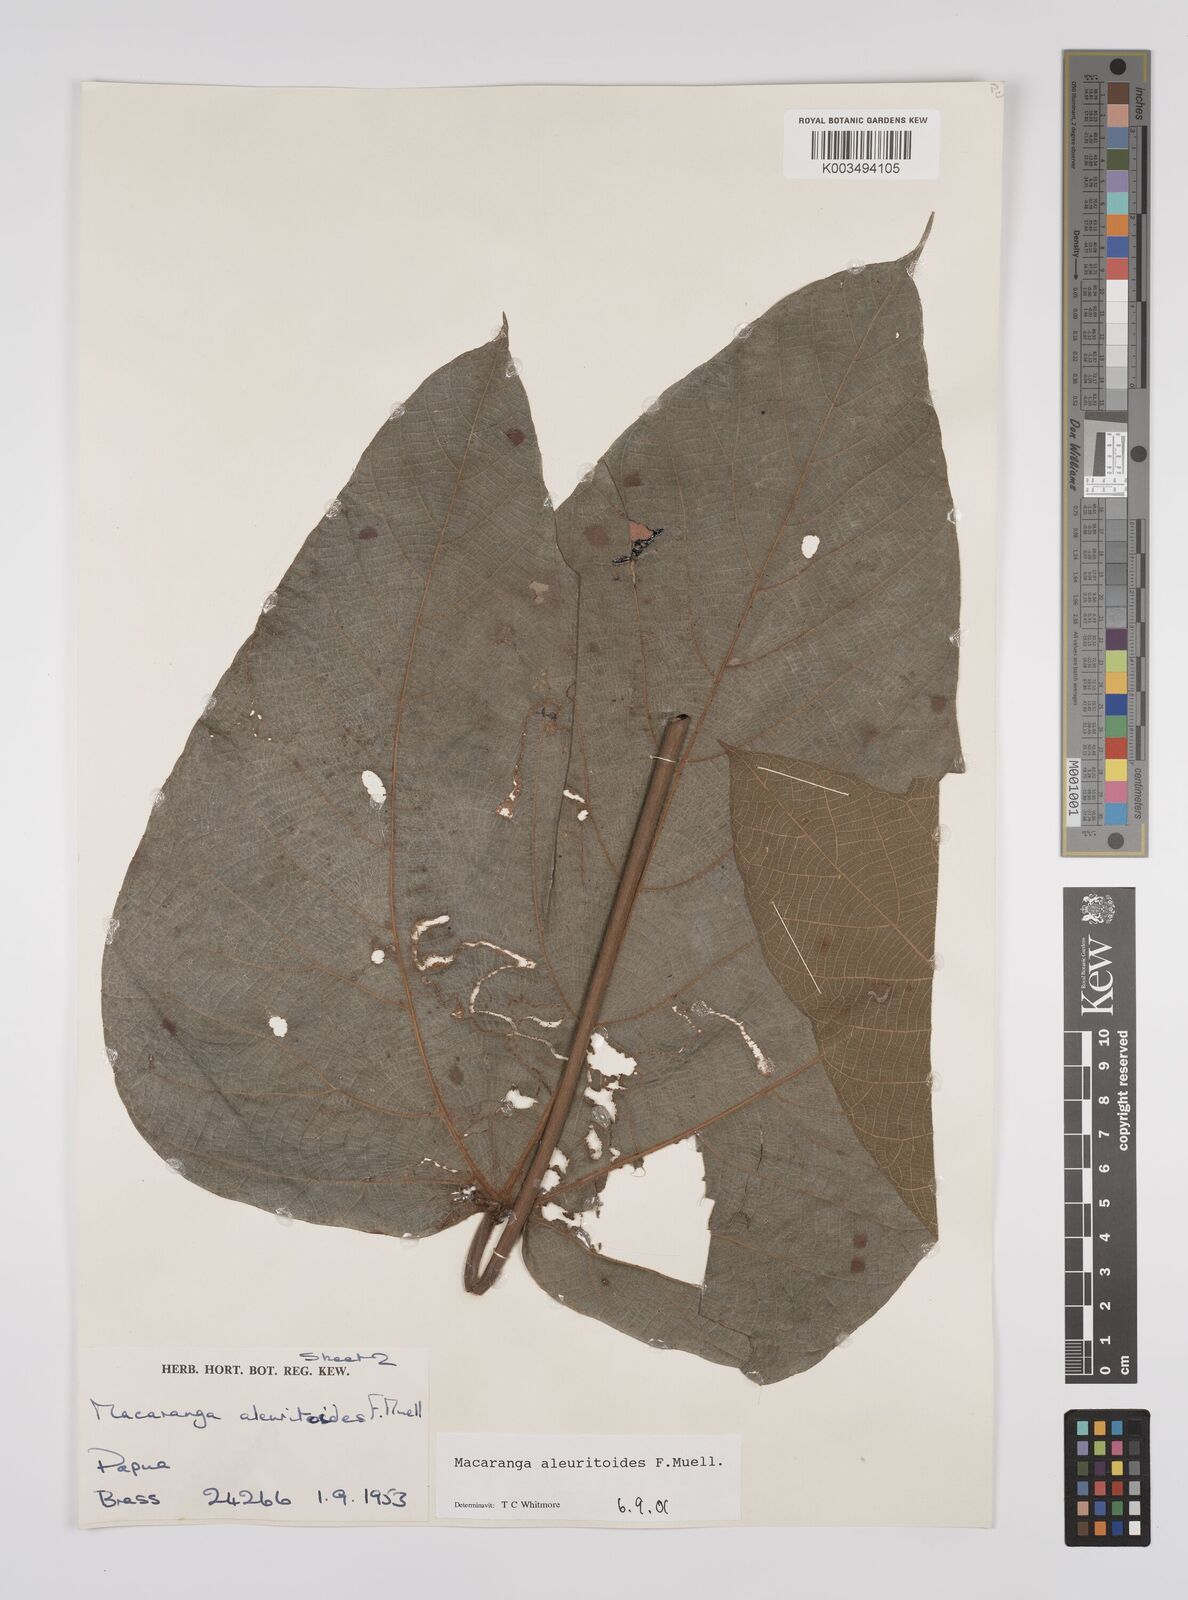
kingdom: Plantae
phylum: Tracheophyta
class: Magnoliopsida
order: Malpighiales
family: Euphorbiaceae
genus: Macaranga
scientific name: Macaranga aleuritoides
